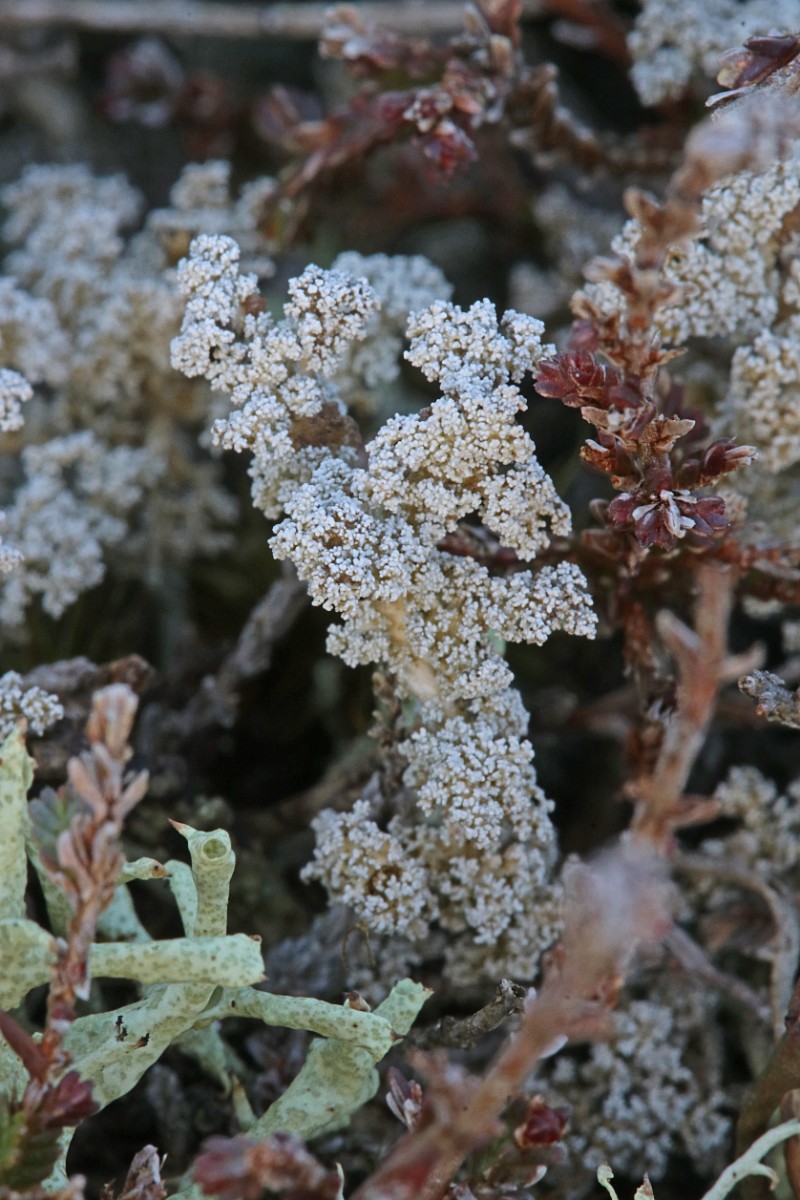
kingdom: Fungi
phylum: Ascomycota
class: Lecanoromycetes
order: Lecanorales
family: Stereocaulaceae
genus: Stereocaulon
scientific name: Stereocaulon saxatile
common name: klit-korallav
